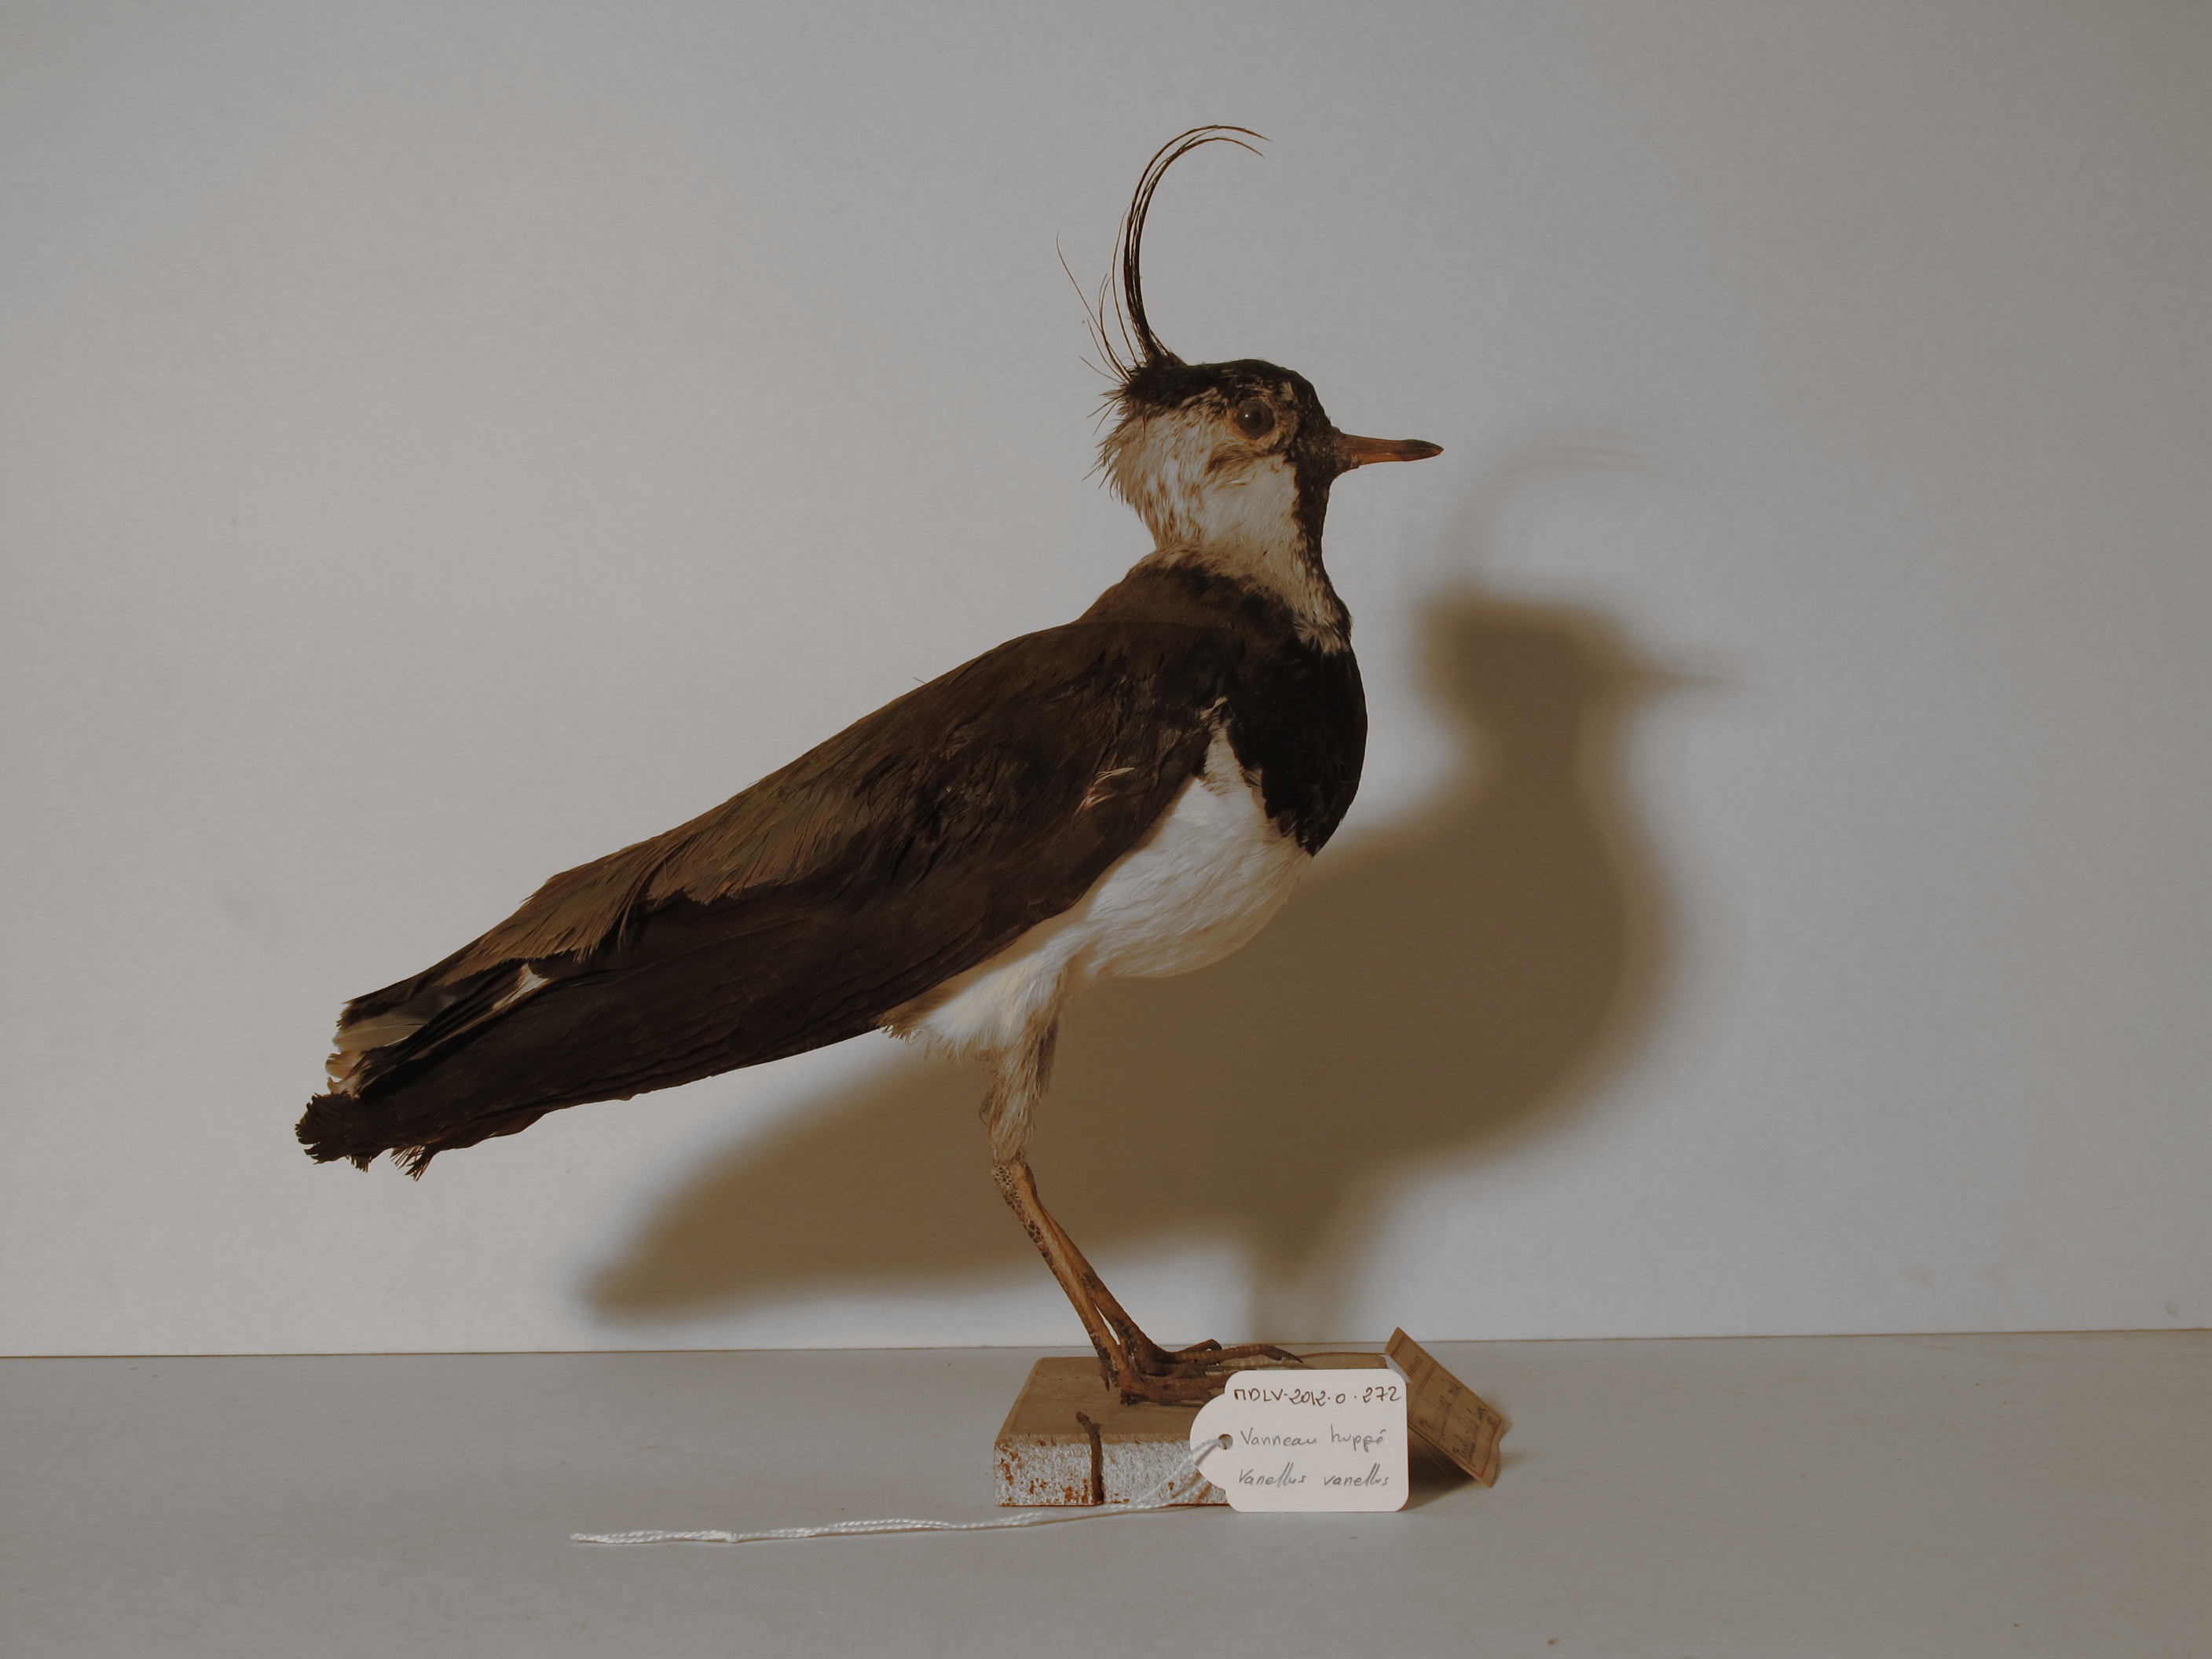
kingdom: Animalia
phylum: Chordata
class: Aves
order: Charadriiformes
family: Charadriidae
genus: Vanellus
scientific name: Vanellus vanellus
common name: Northern Lapwing
